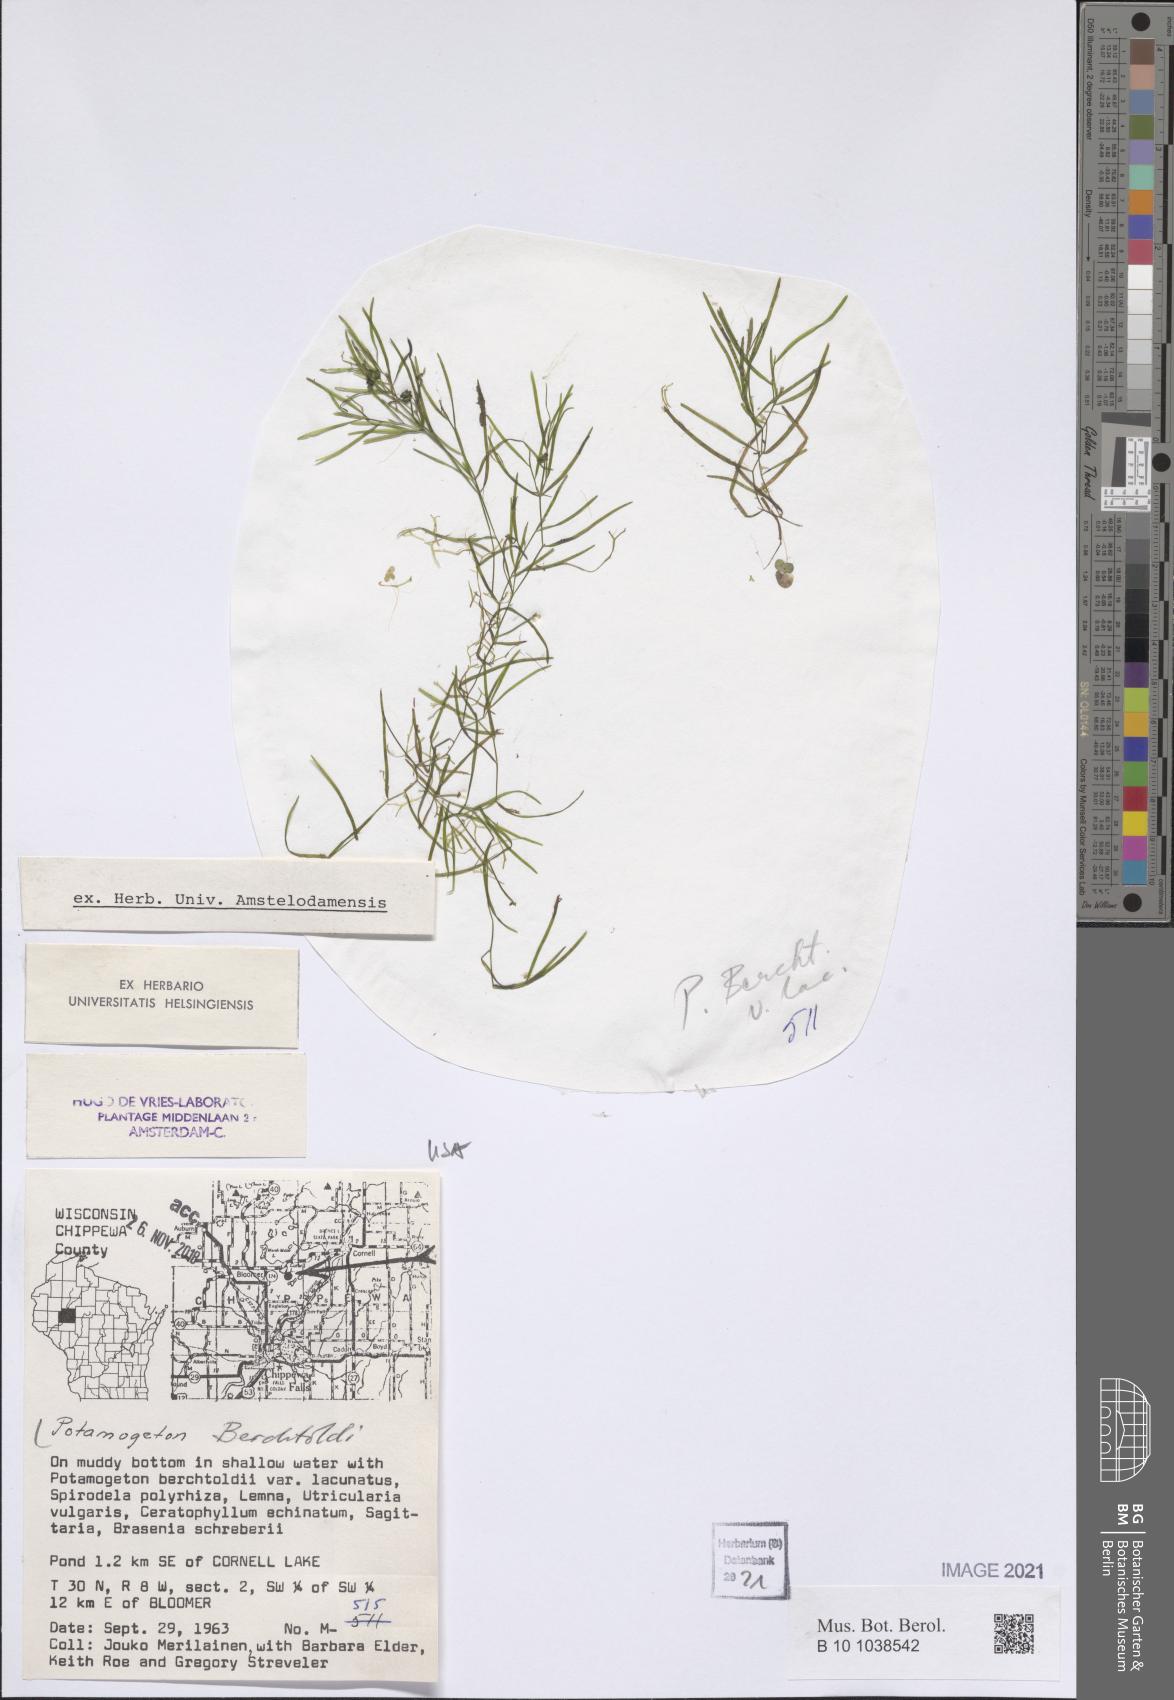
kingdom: Plantae
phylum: Tracheophyta
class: Liliopsida
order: Alismatales
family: Potamogetonaceae
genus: Potamogeton
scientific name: Potamogeton berchtoldii
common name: Small pondweed
